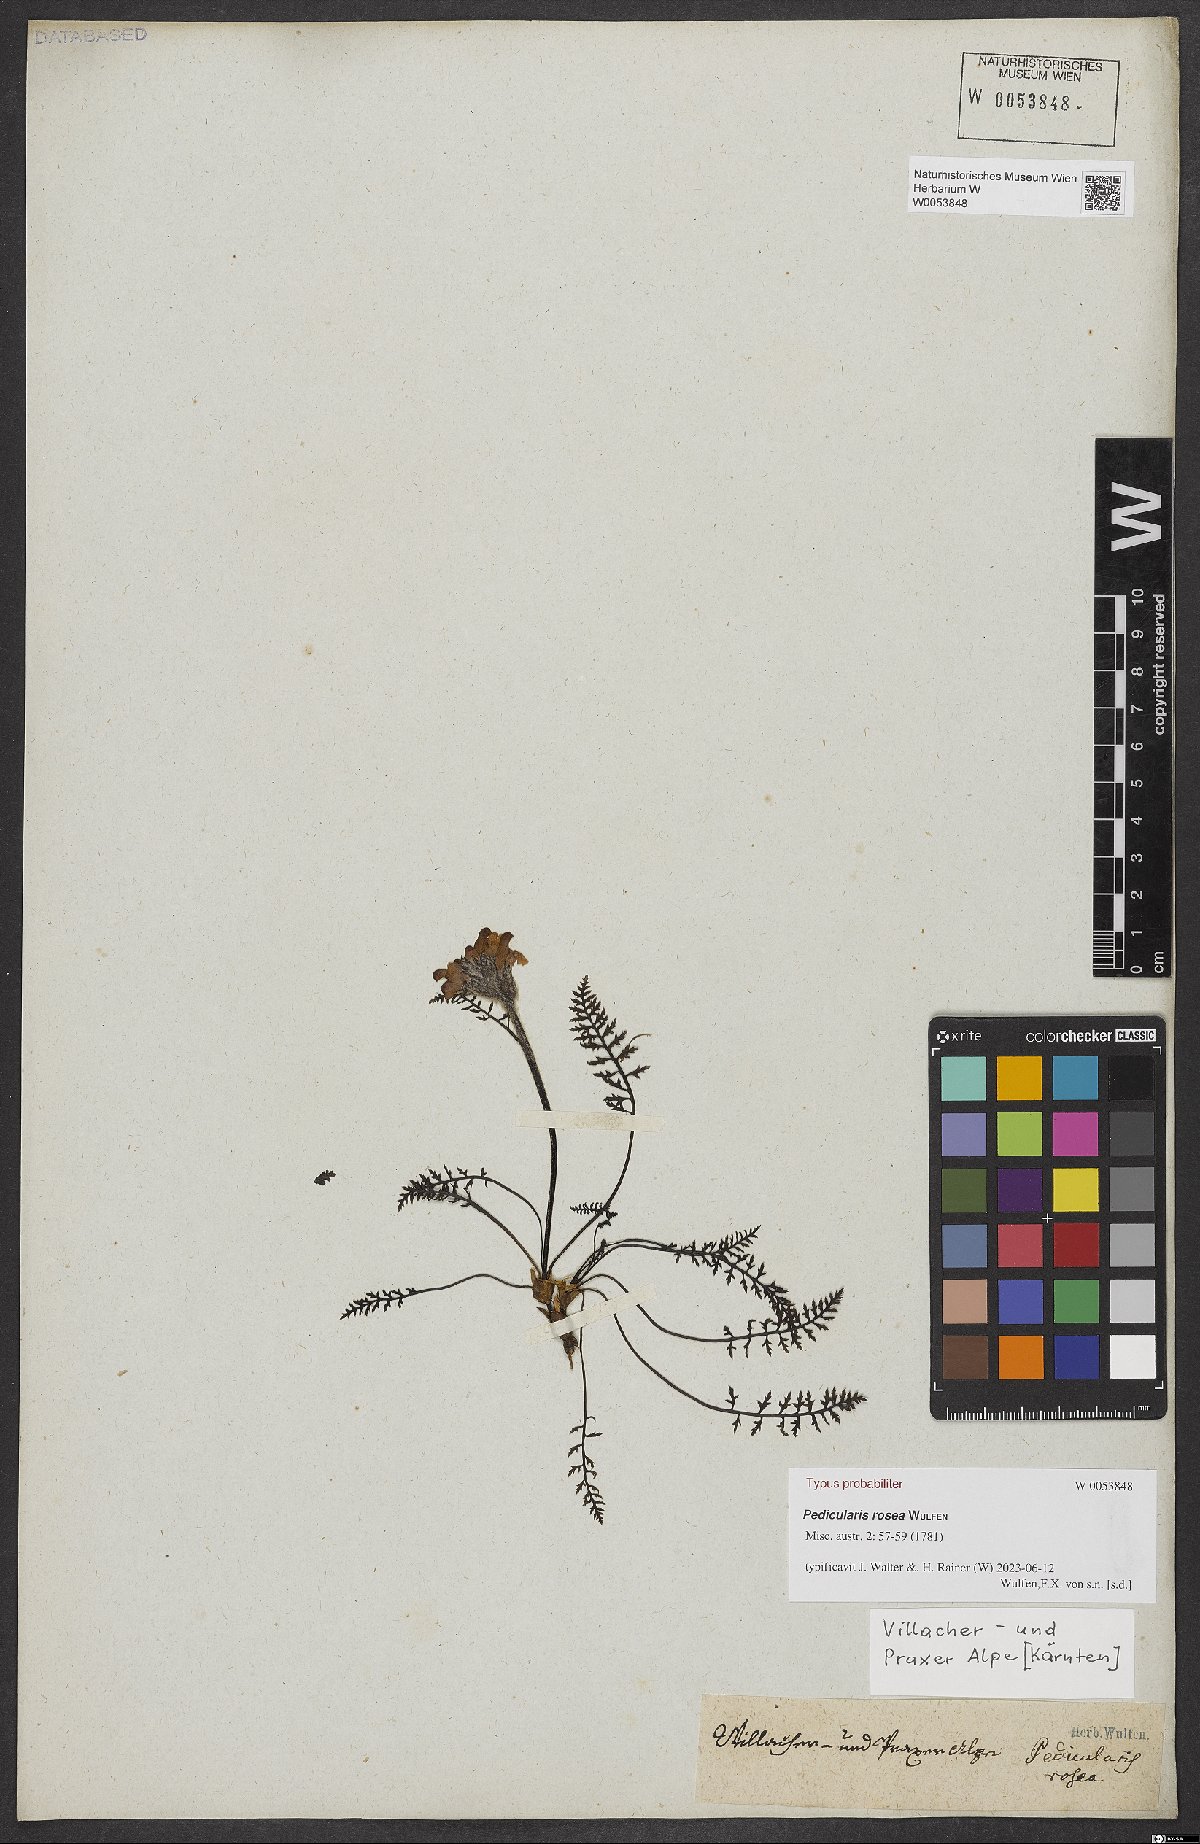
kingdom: Plantae
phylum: Tracheophyta
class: Magnoliopsida
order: Lamiales
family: Orobanchaceae
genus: Pedicularis
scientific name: Pedicularis rosea
